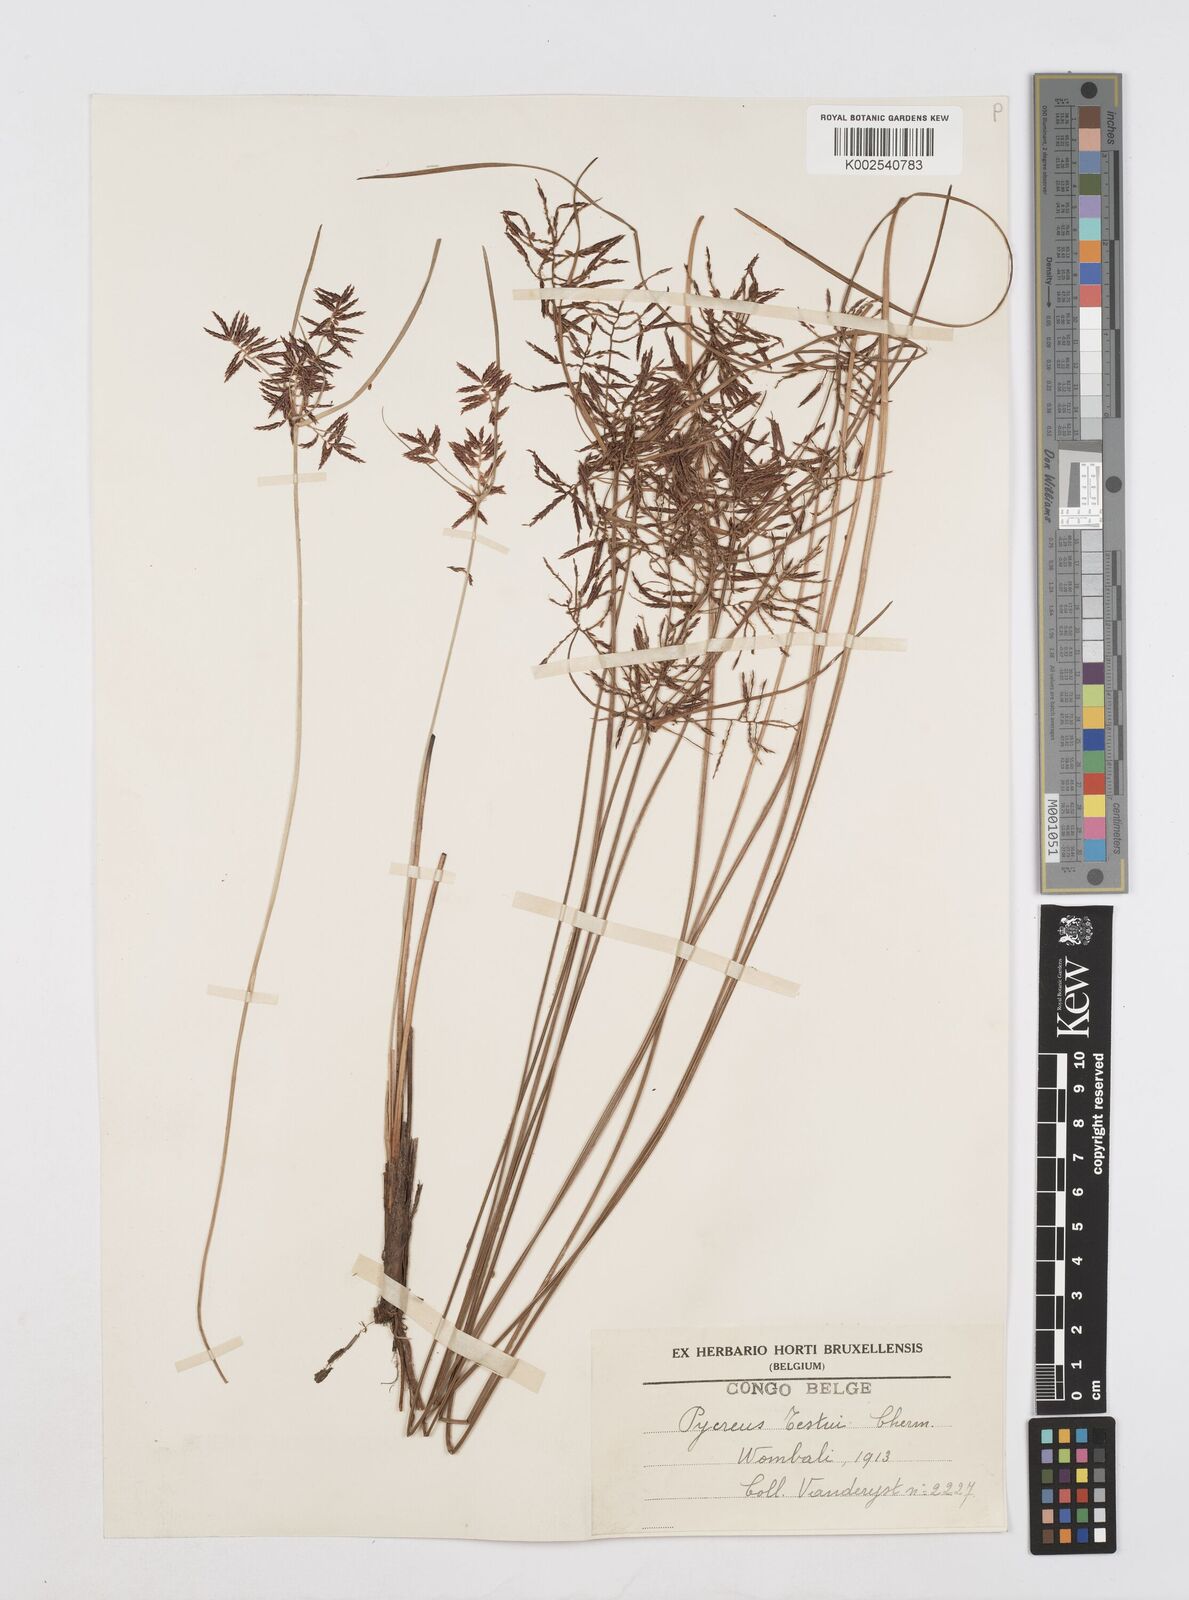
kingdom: Plantae
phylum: Tracheophyta
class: Liliopsida
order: Poales
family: Cyperaceae
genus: Cyperus
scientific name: Cyperus aethiops
